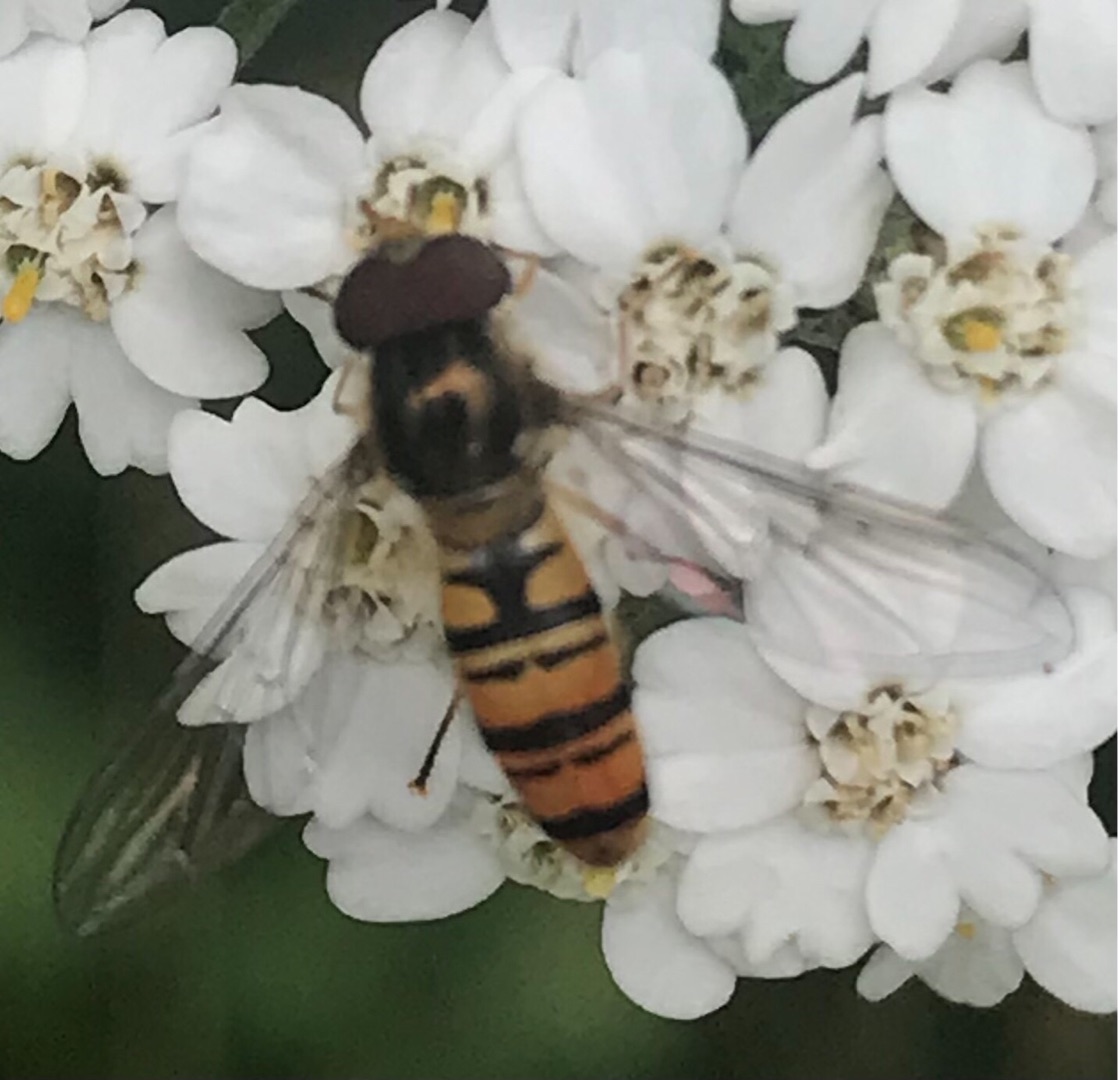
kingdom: Animalia
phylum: Arthropoda
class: Insecta
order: Diptera
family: Syrphidae
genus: Episyrphus
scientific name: Episyrphus balteatus
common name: Dobbeltbåndet svirreflue
